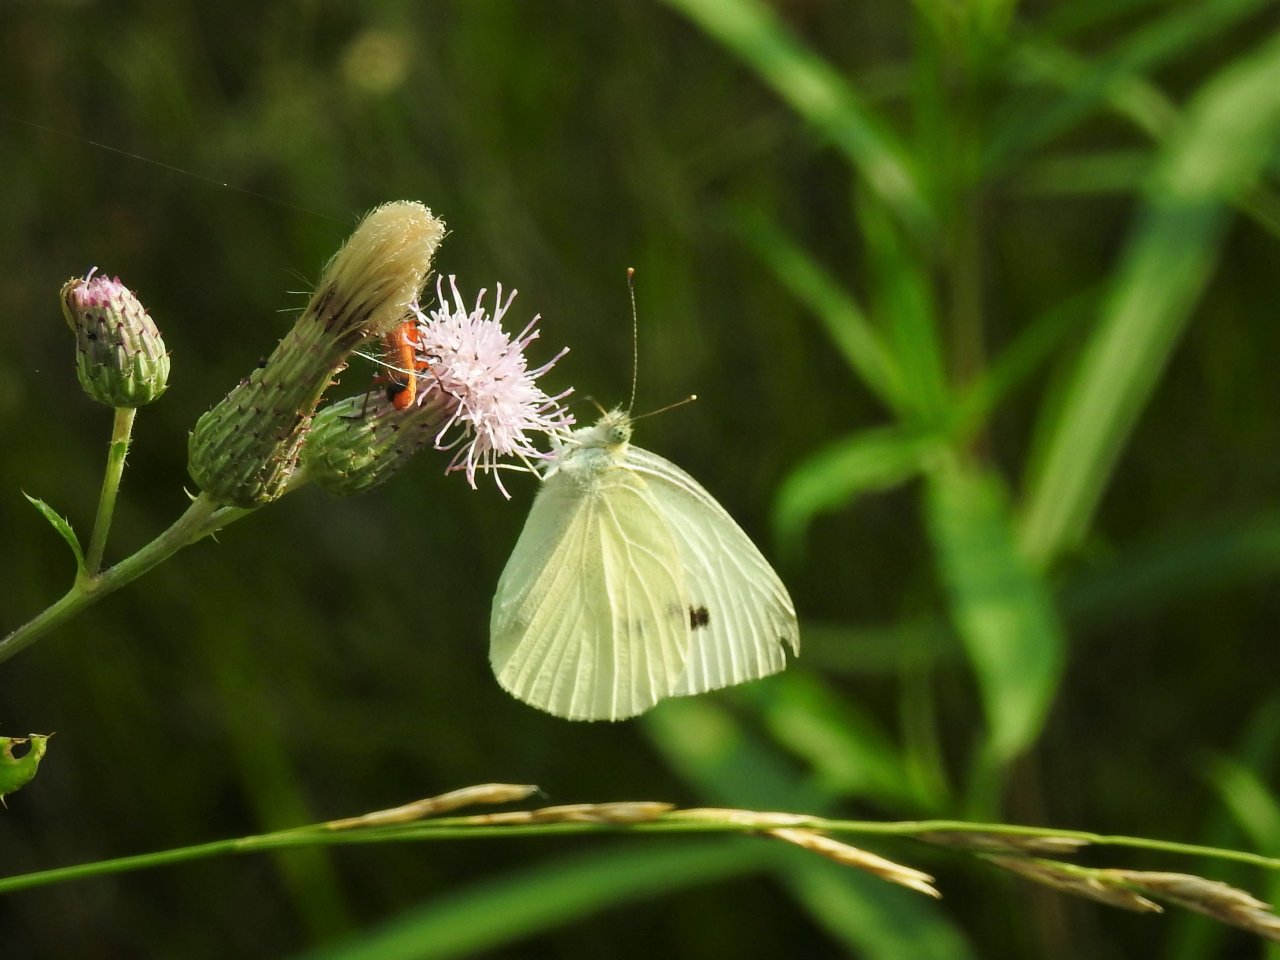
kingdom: Animalia
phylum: Arthropoda
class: Insecta
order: Lepidoptera
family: Pieridae
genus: Pieris
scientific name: Pieris rapae
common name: Cabbage White
